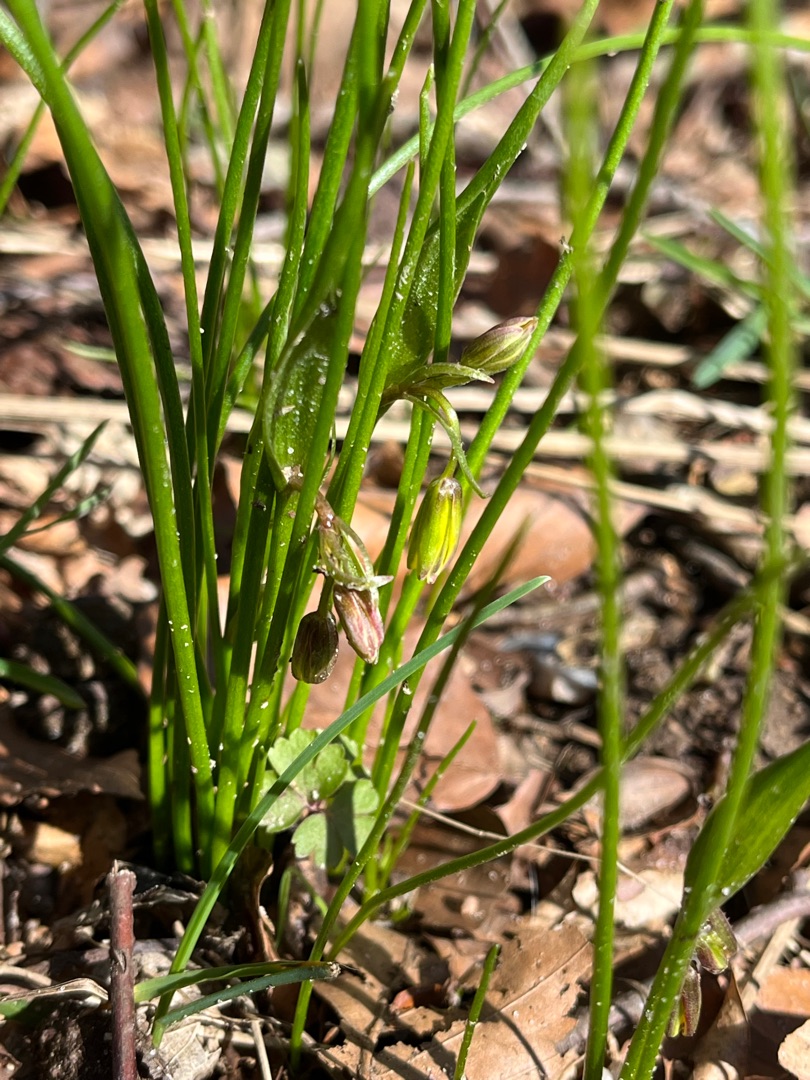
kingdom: Plantae
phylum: Tracheophyta
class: Liliopsida
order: Liliales
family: Liliaceae
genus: Gagea
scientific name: Gagea spathacea
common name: Hylster-guldstjerne
